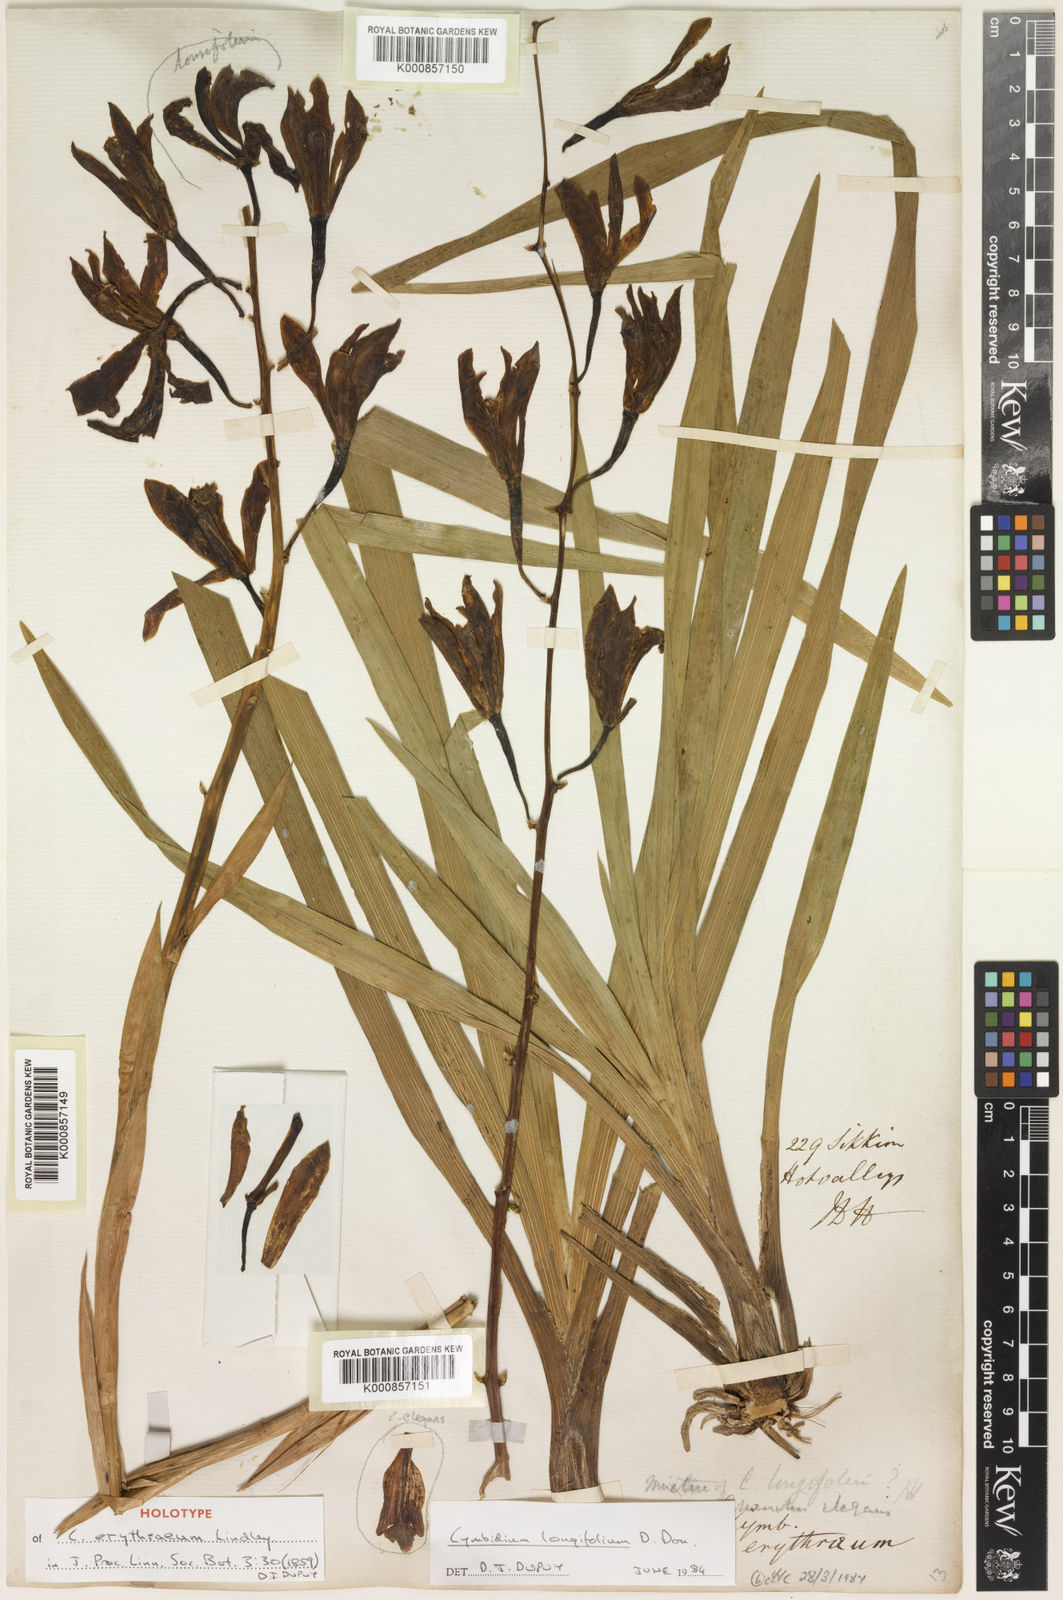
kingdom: Plantae
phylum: Tracheophyta
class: Liliopsida
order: Asparagales
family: Orchidaceae
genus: Cymbidium
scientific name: Cymbidium erythraeum
